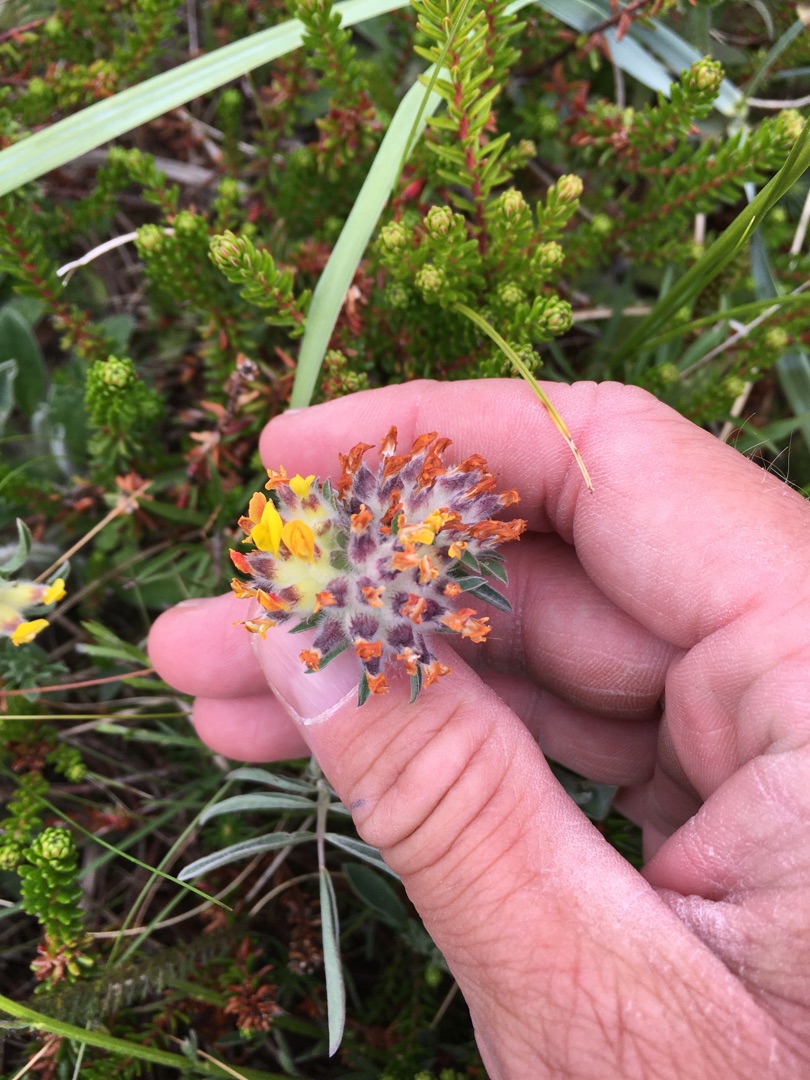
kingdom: Plantae
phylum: Tracheophyta
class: Magnoliopsida
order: Fabales
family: Fabaceae
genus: Anthyllis
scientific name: Anthyllis vulneraria
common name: Rundbælg
